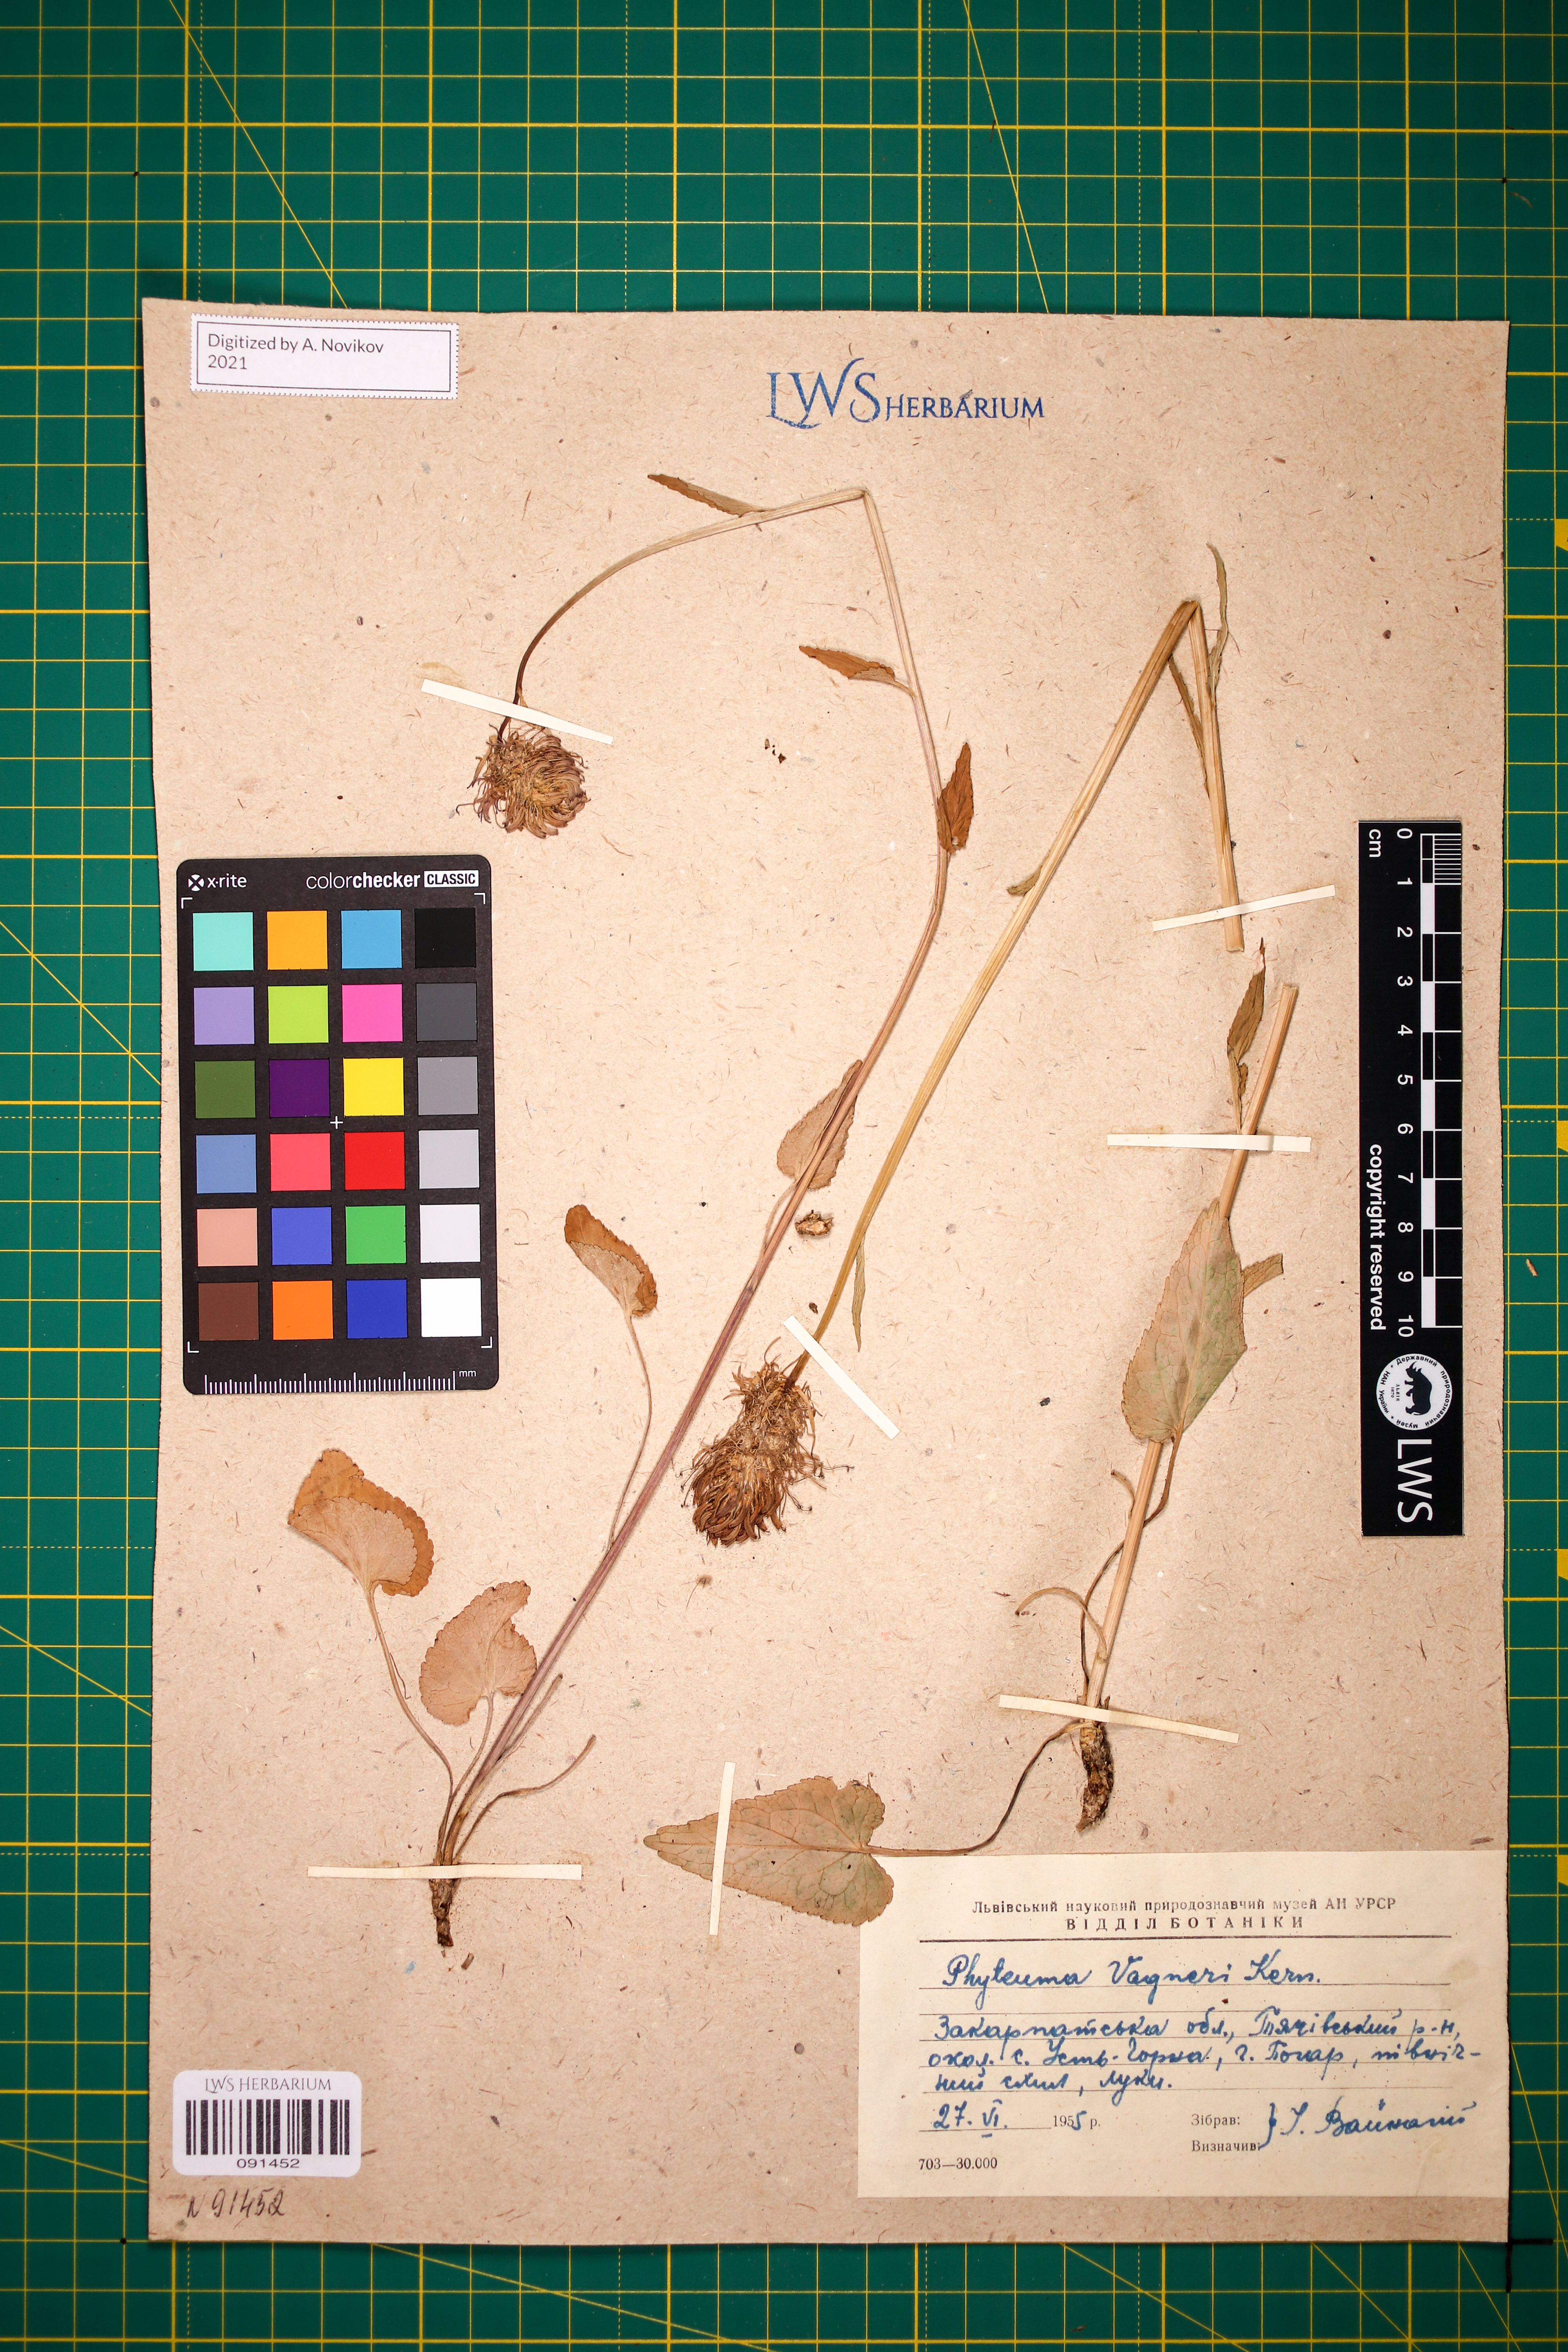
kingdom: Plantae
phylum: Tracheophyta
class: Magnoliopsida
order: Asterales
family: Campanulaceae
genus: Phyteuma
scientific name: Phyteuma vagneri
